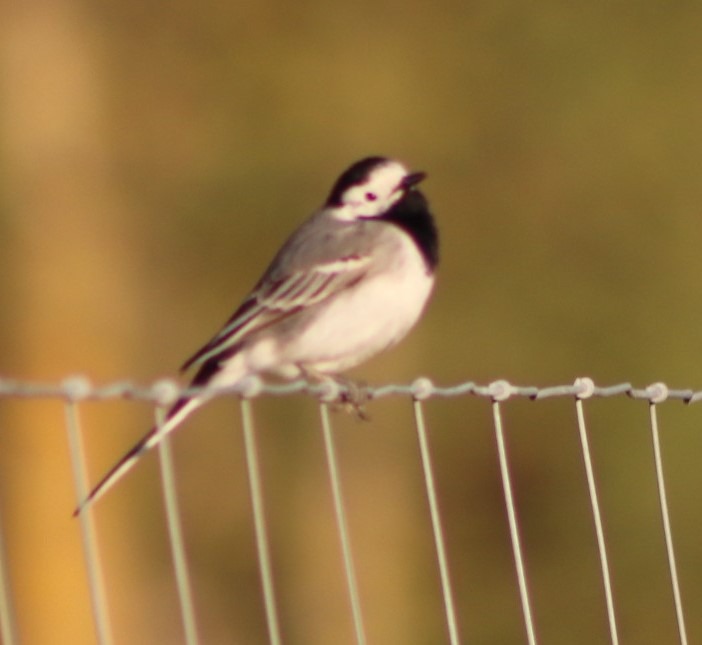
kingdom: Animalia
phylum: Chordata
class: Aves
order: Passeriformes
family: Motacillidae
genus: Motacilla
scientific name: Motacilla alba
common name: Hvid vipstjert
